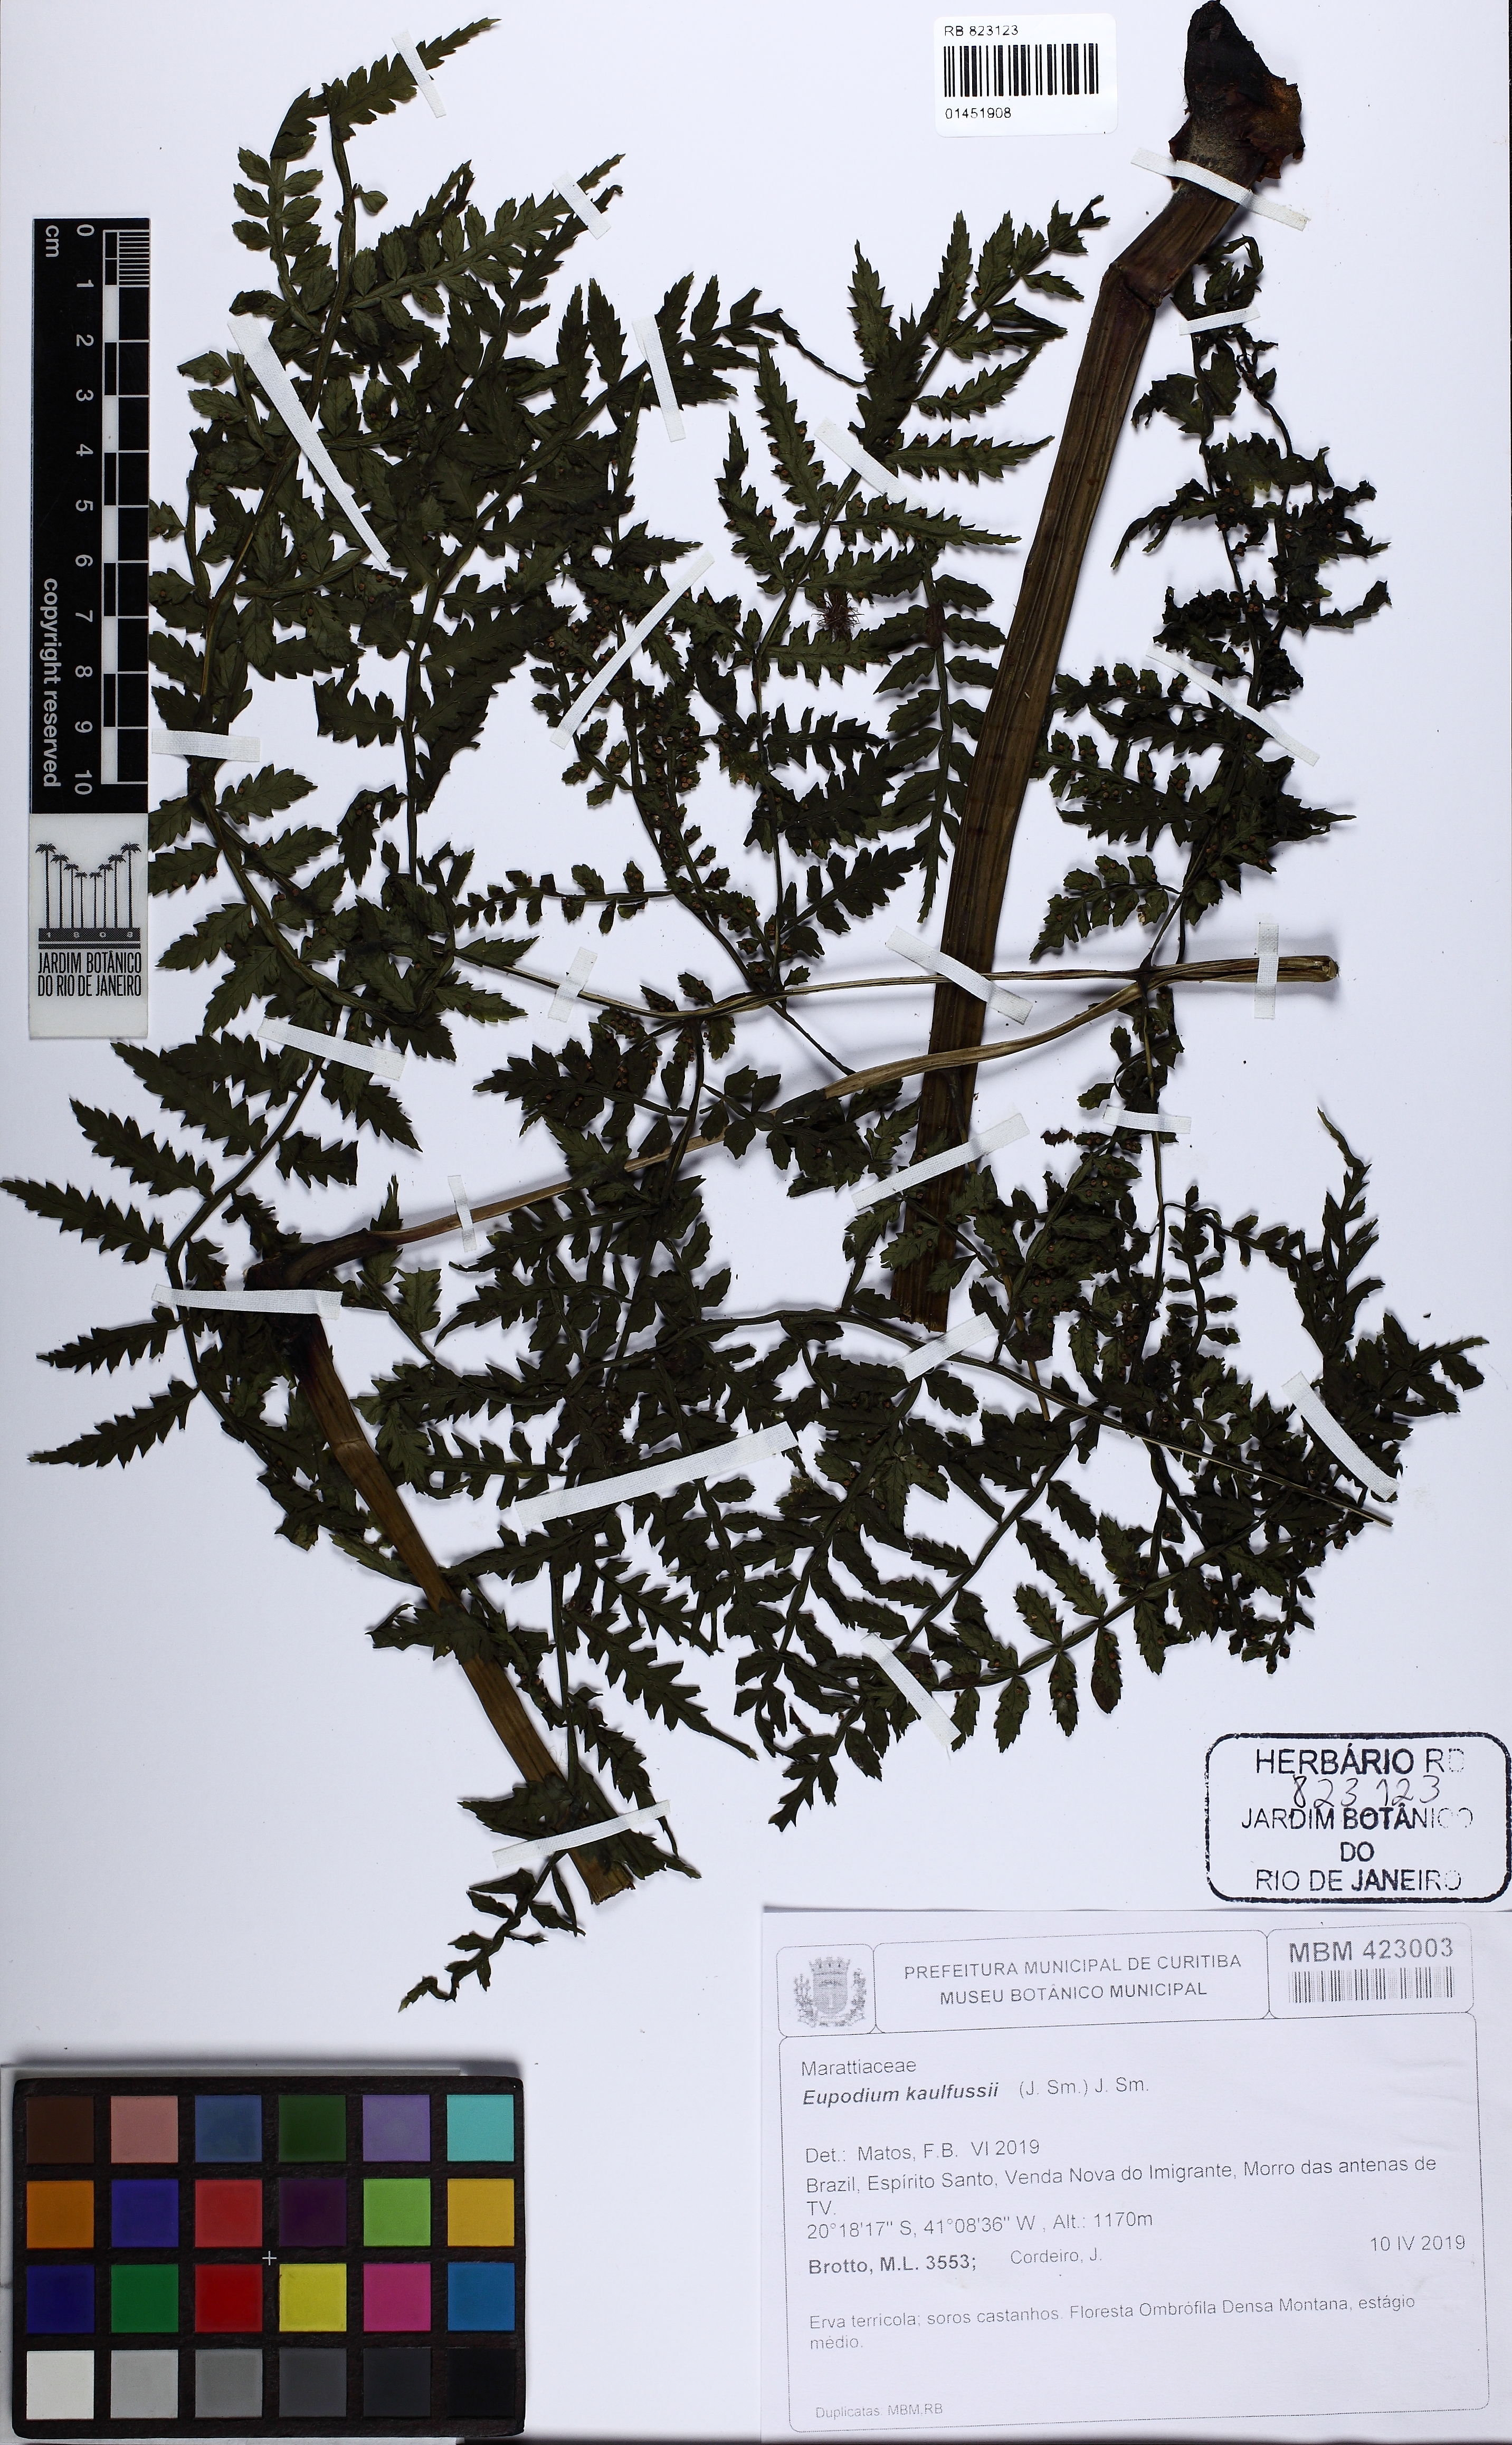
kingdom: Plantae
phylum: Tracheophyta
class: Polypodiopsida
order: Marattiales
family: Marattiaceae
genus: Eupodium
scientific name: Eupodium kaulfussii
